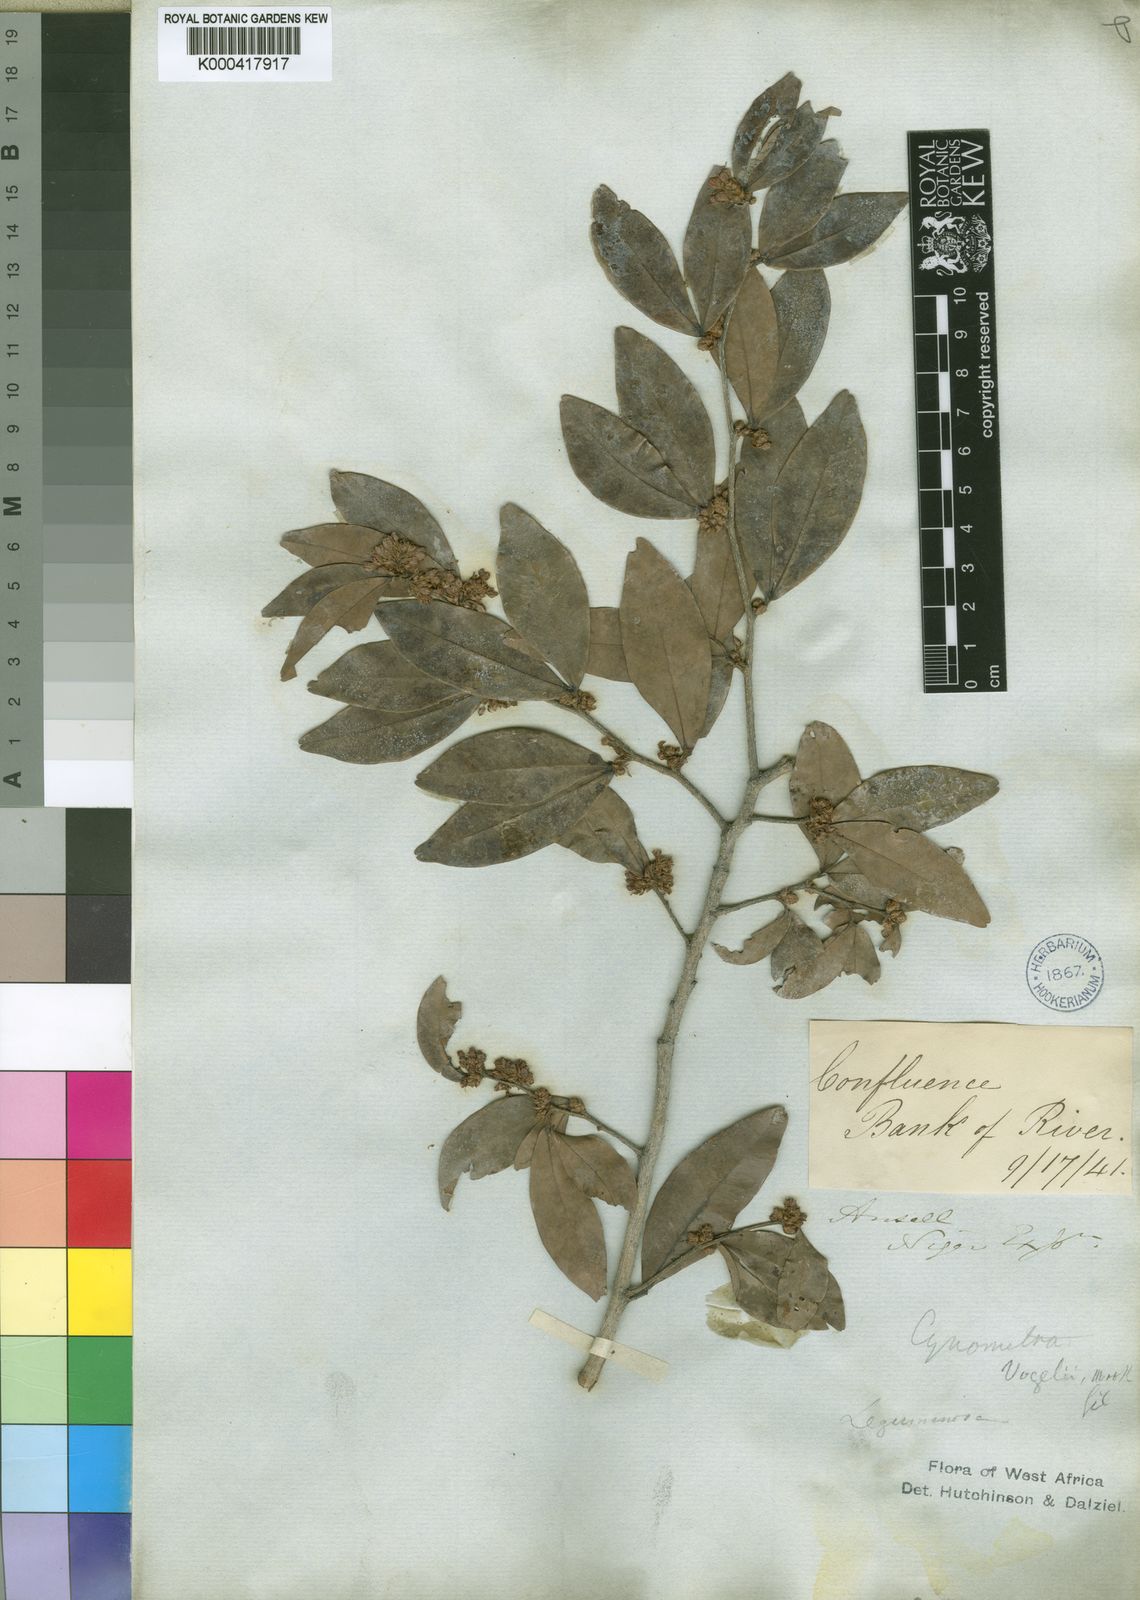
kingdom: Plantae
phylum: Tracheophyta
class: Magnoliopsida
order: Fabales
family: Fabaceae
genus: Cynometra
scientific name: Cynometra vogelii
